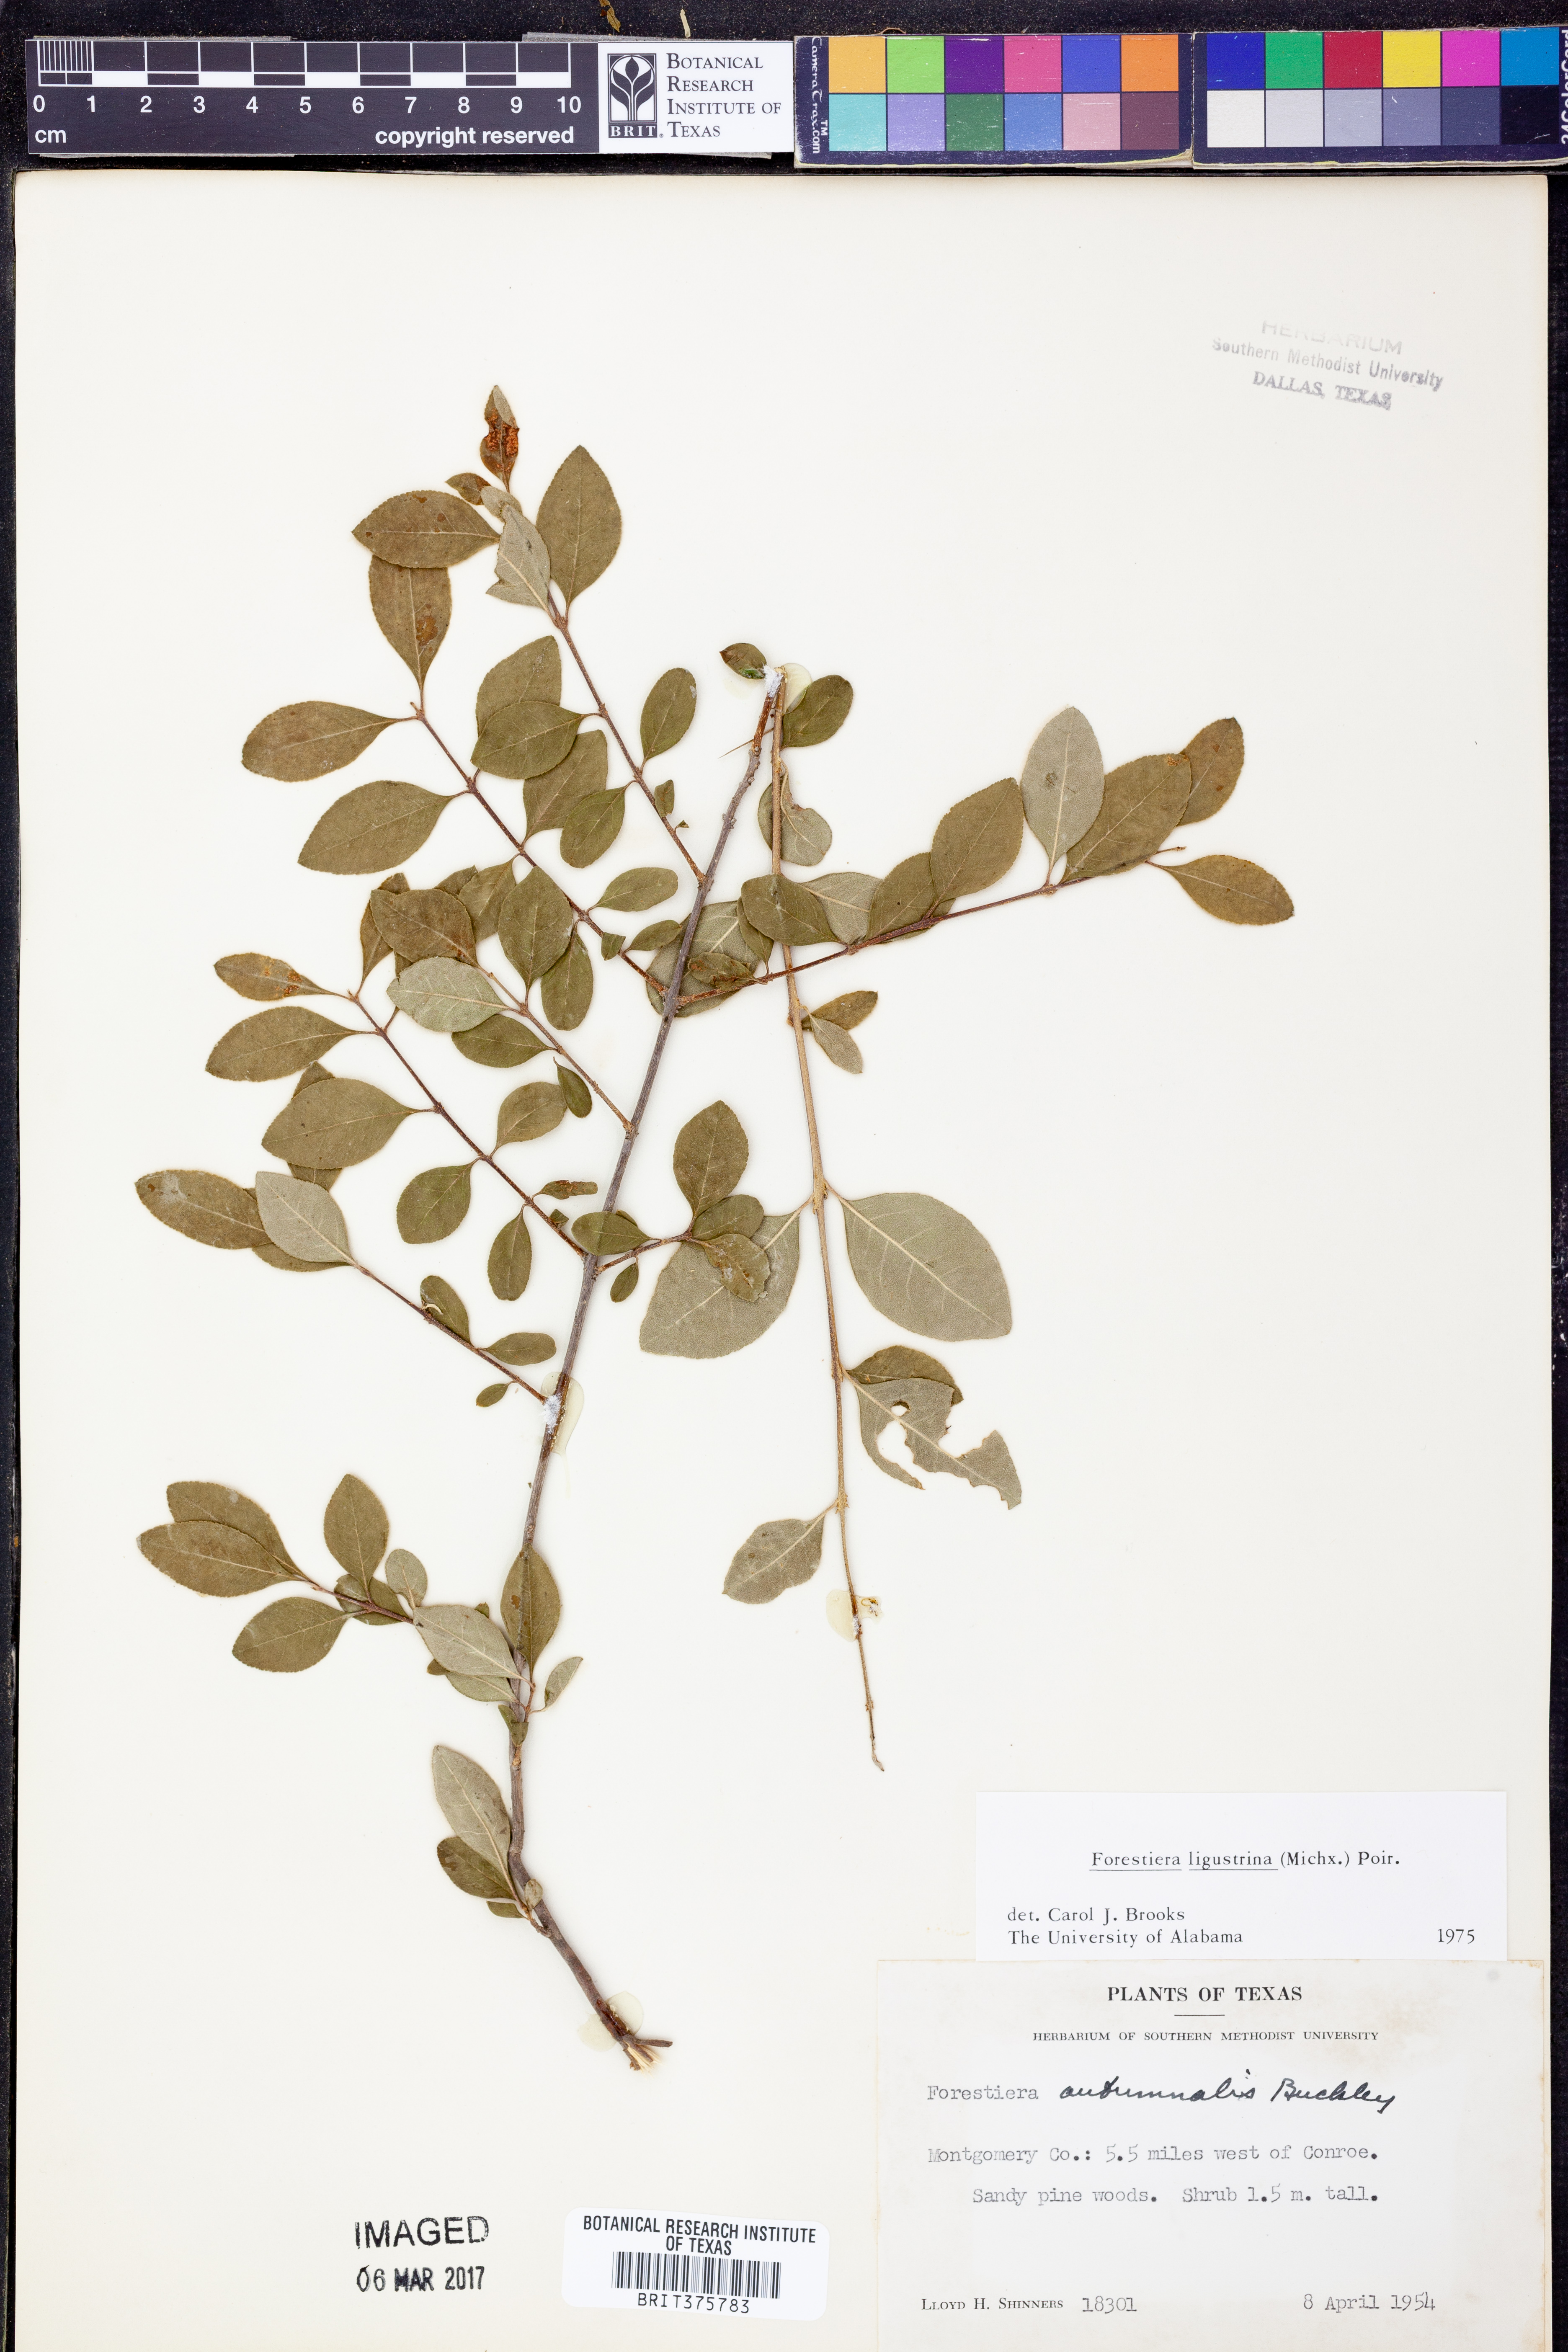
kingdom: Plantae
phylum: Tracheophyta
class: Magnoliopsida
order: Lamiales
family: Oleaceae
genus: Forestiera
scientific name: Forestiera ligustrina
